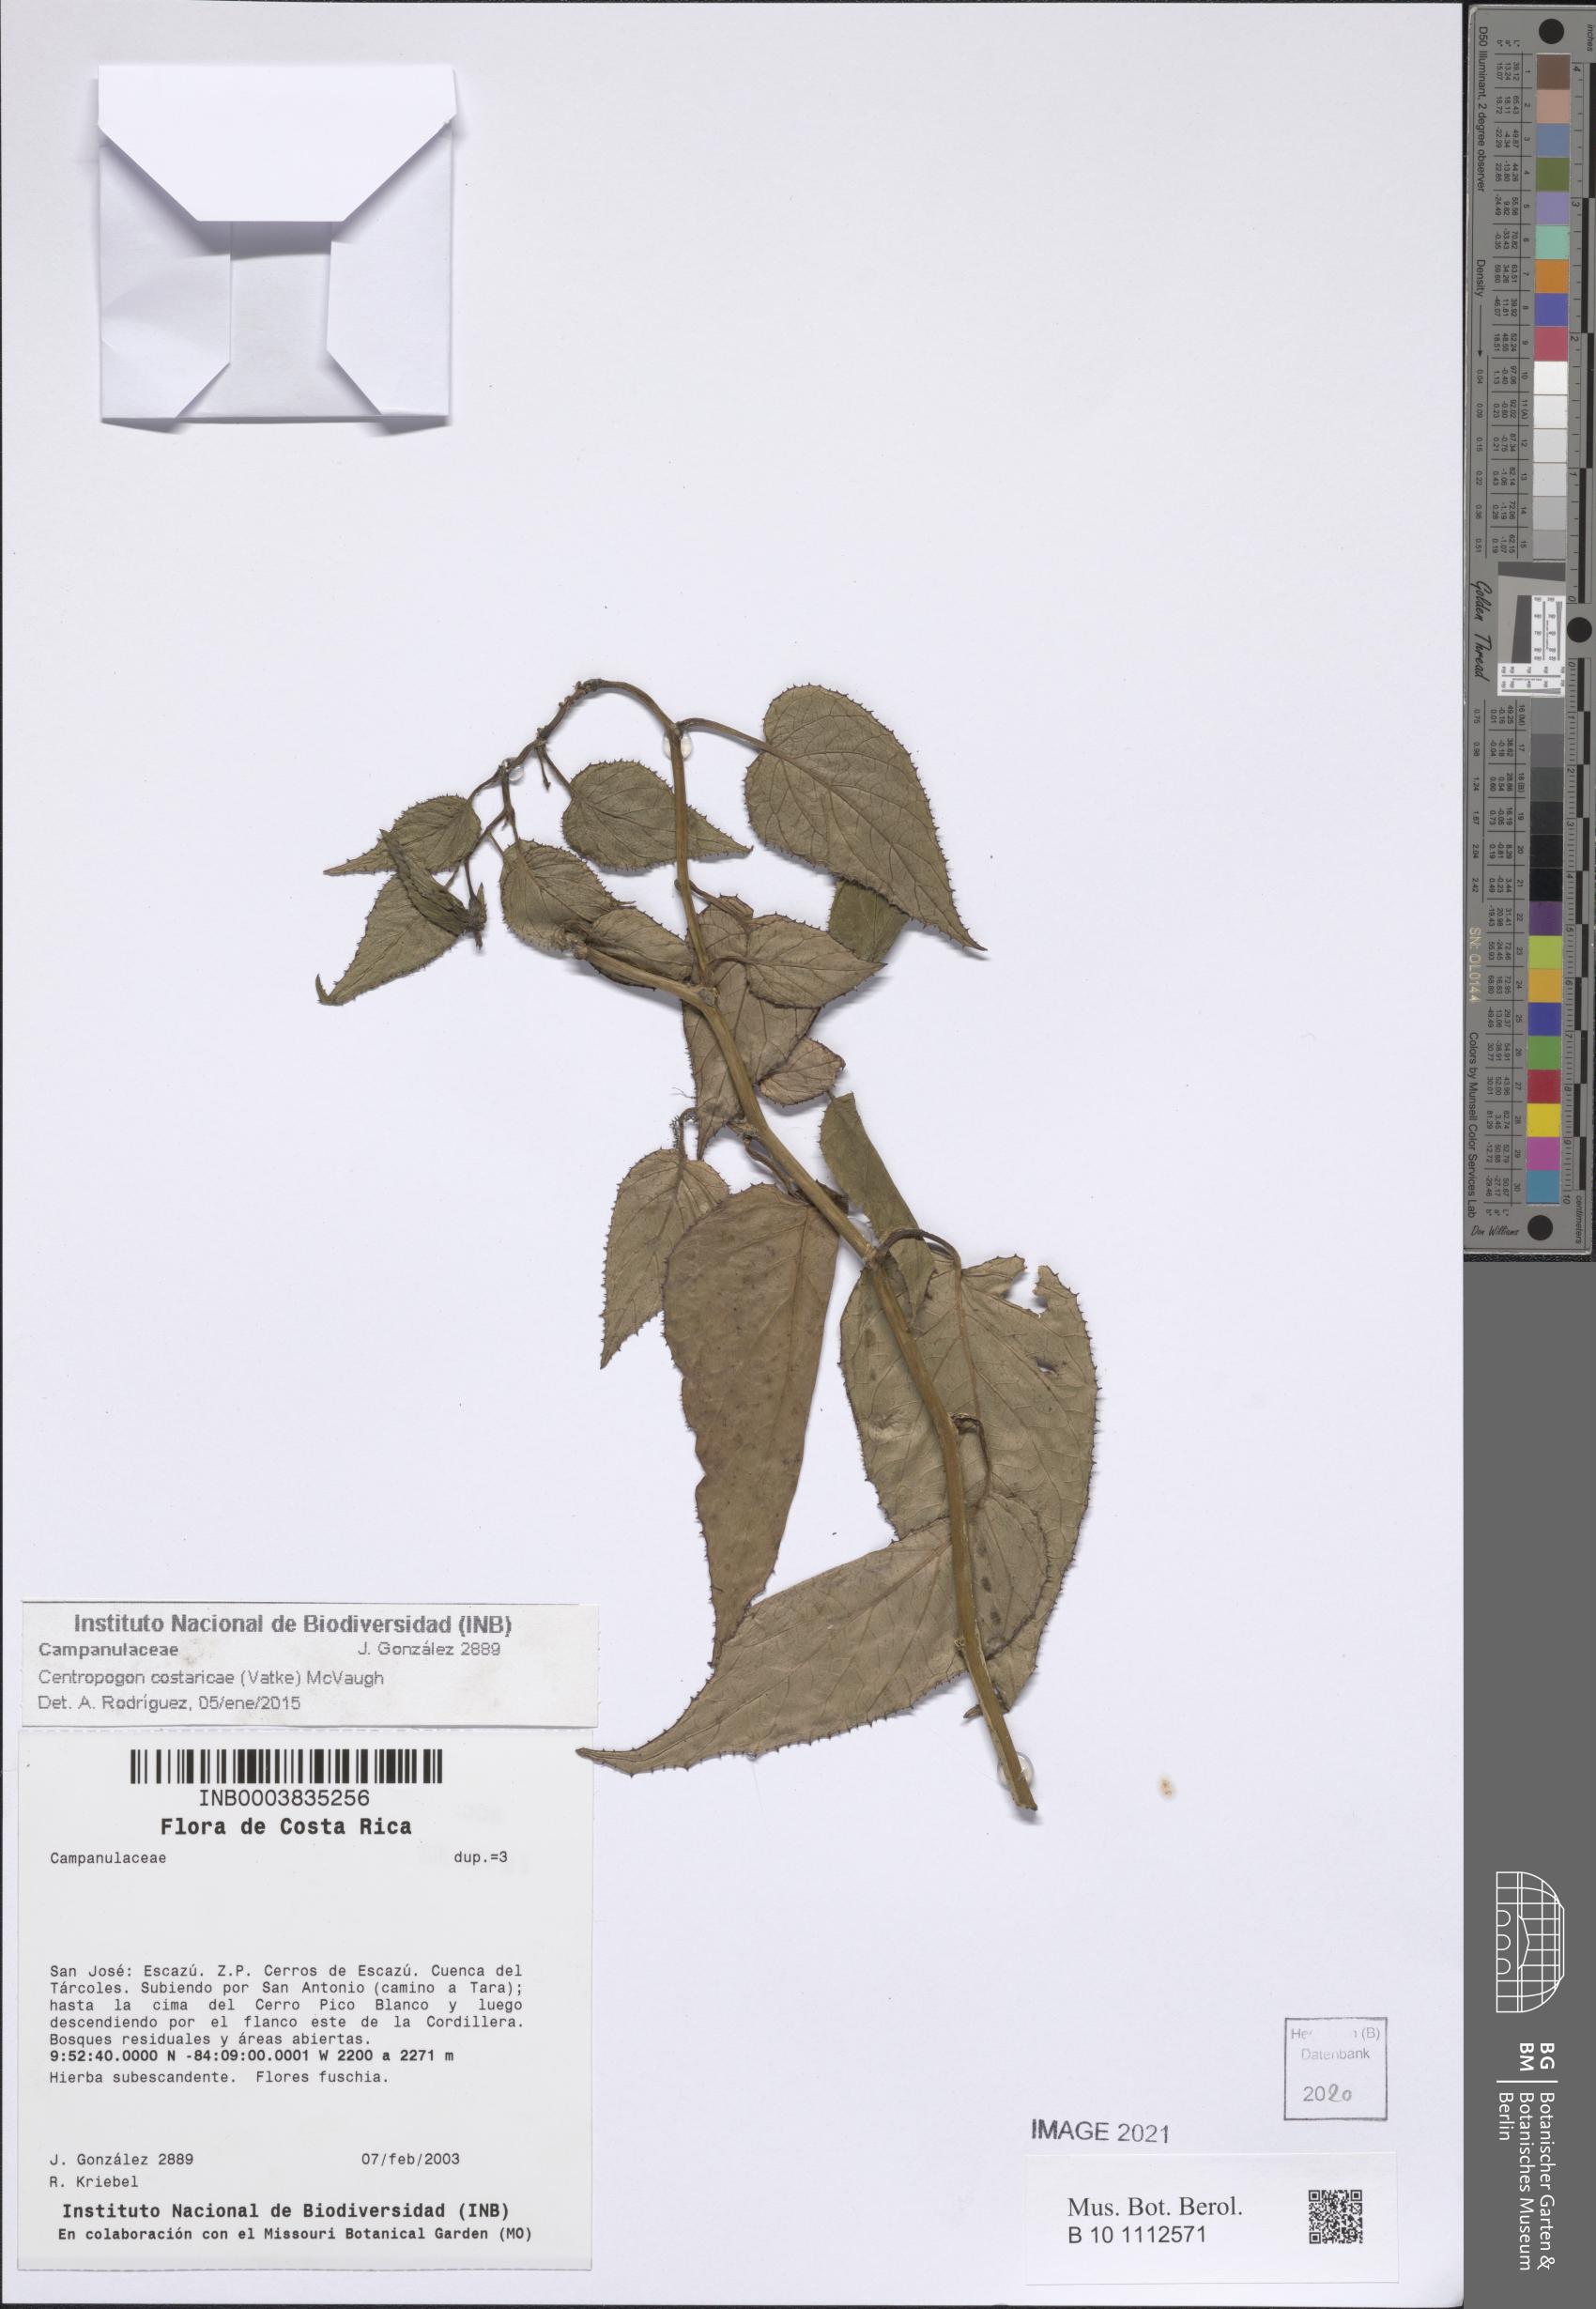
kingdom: Plantae
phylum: Tracheophyta
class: Magnoliopsida
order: Asterales
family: Campanulaceae
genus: Centropogon
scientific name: Centropogon costaricae
